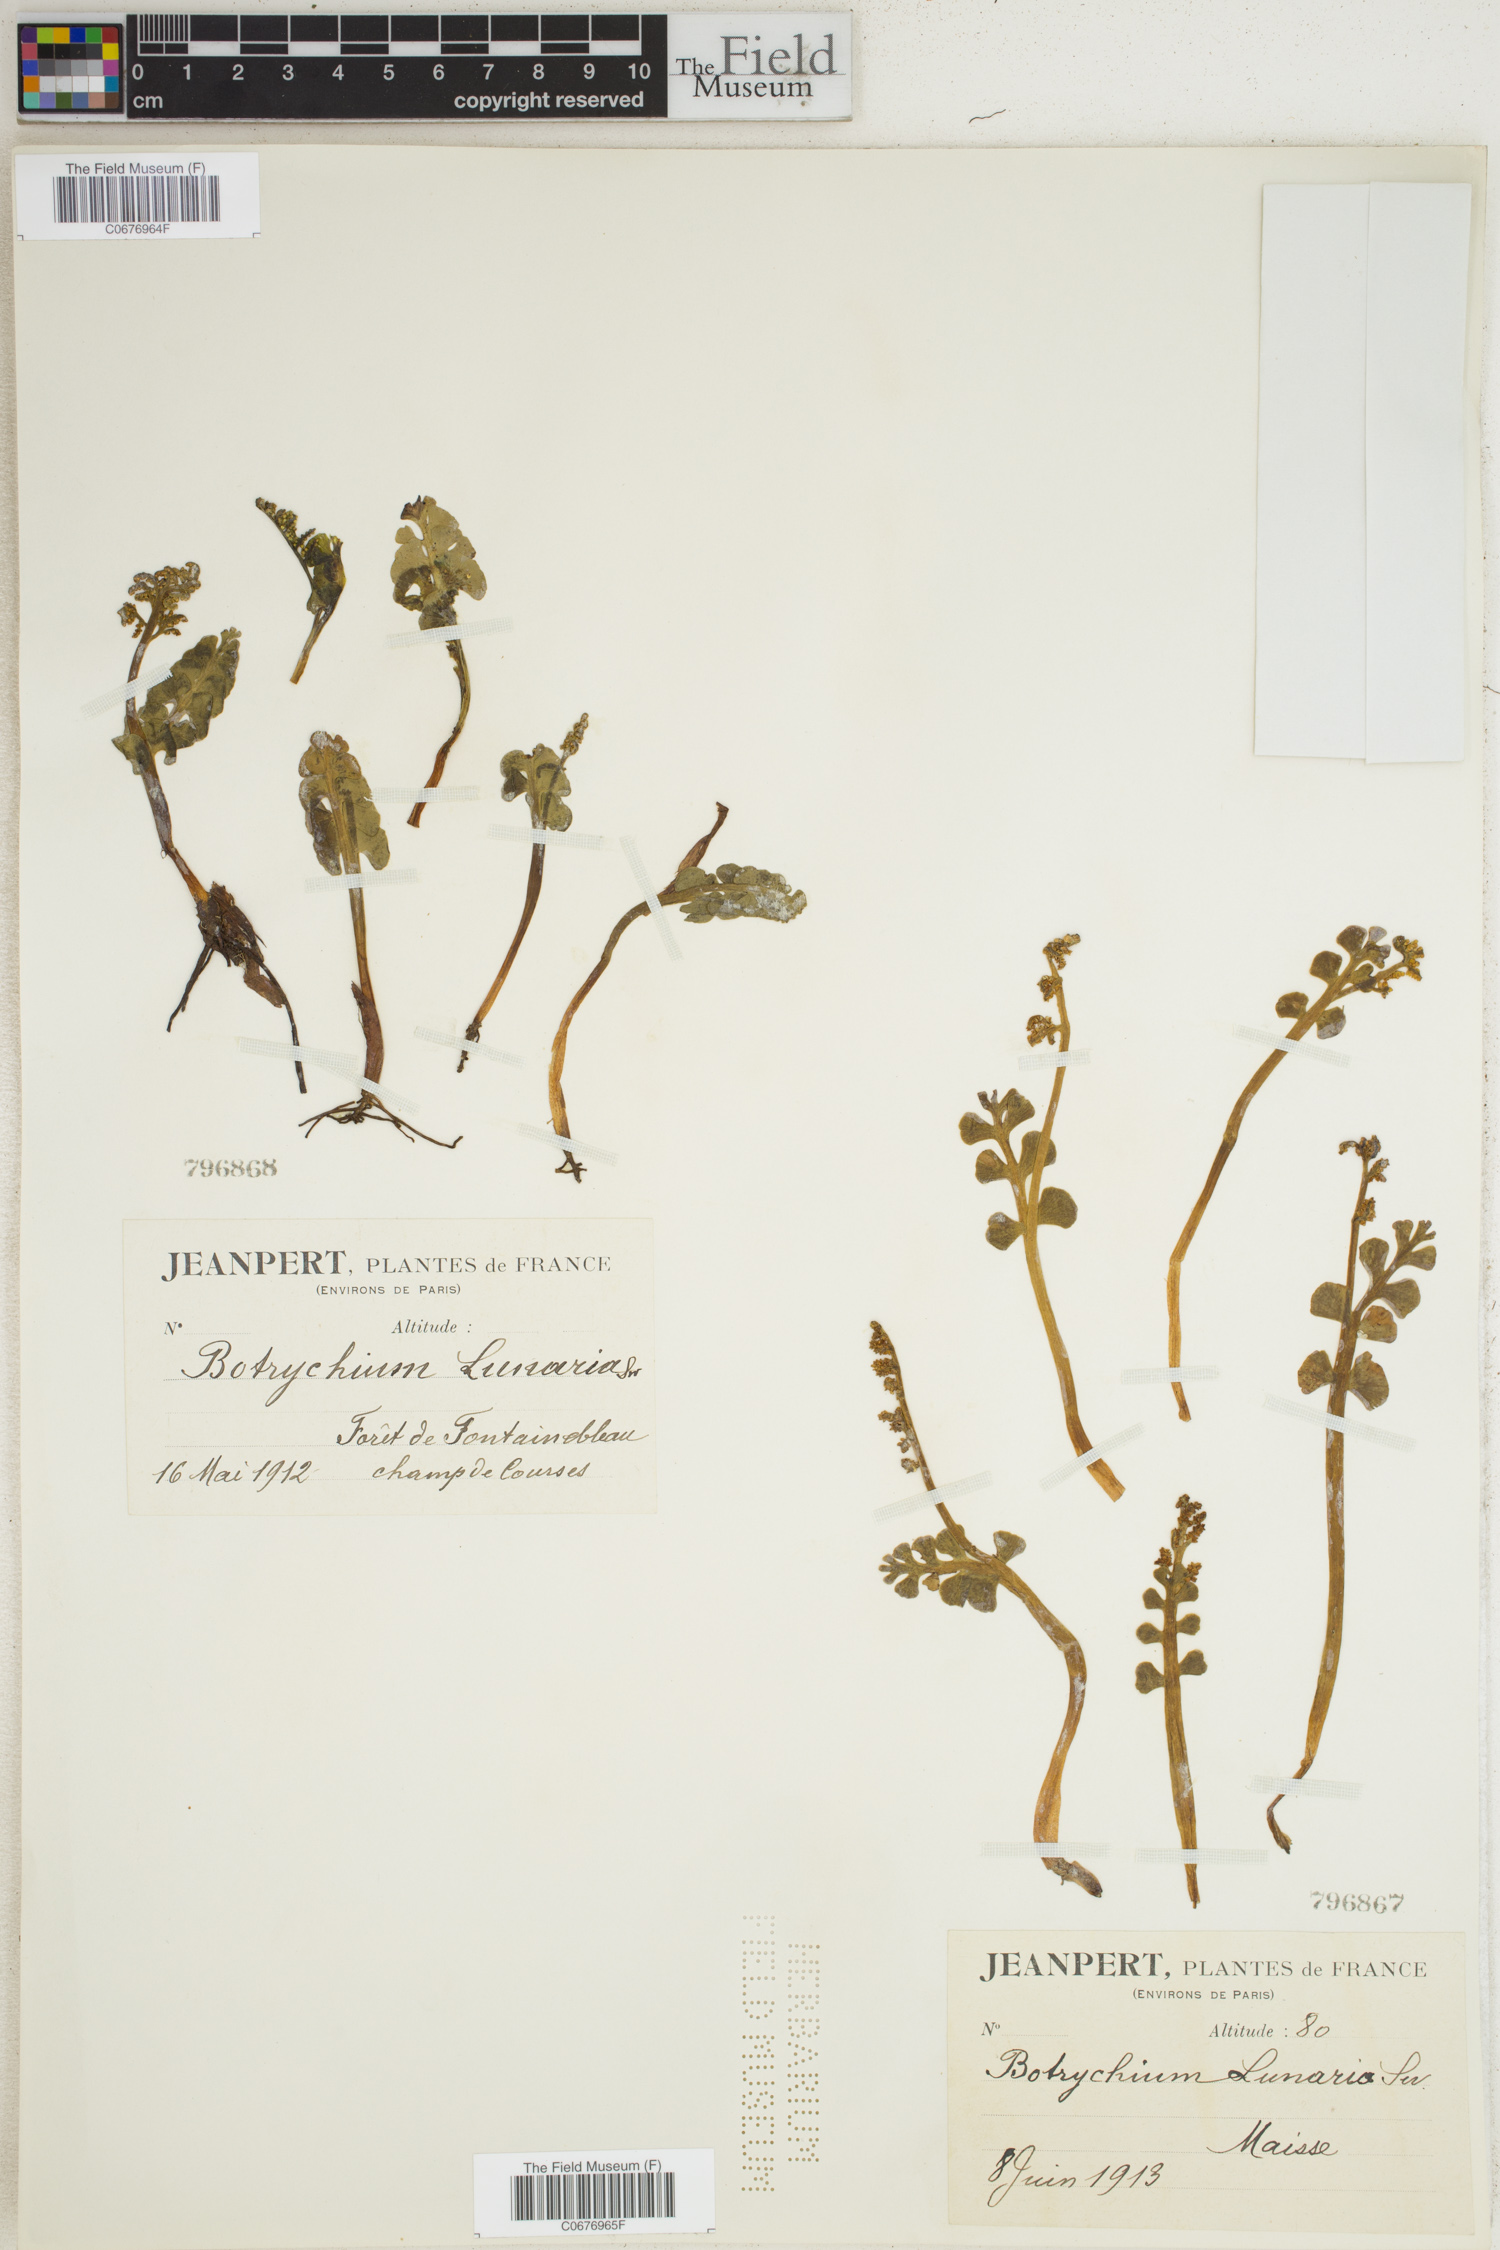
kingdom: Plantae
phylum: Tracheophyta
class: Polypodiopsida
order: Ophioglossales
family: Ophioglossaceae
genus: Botrychium
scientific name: Botrychium lunaria
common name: Moonwort
